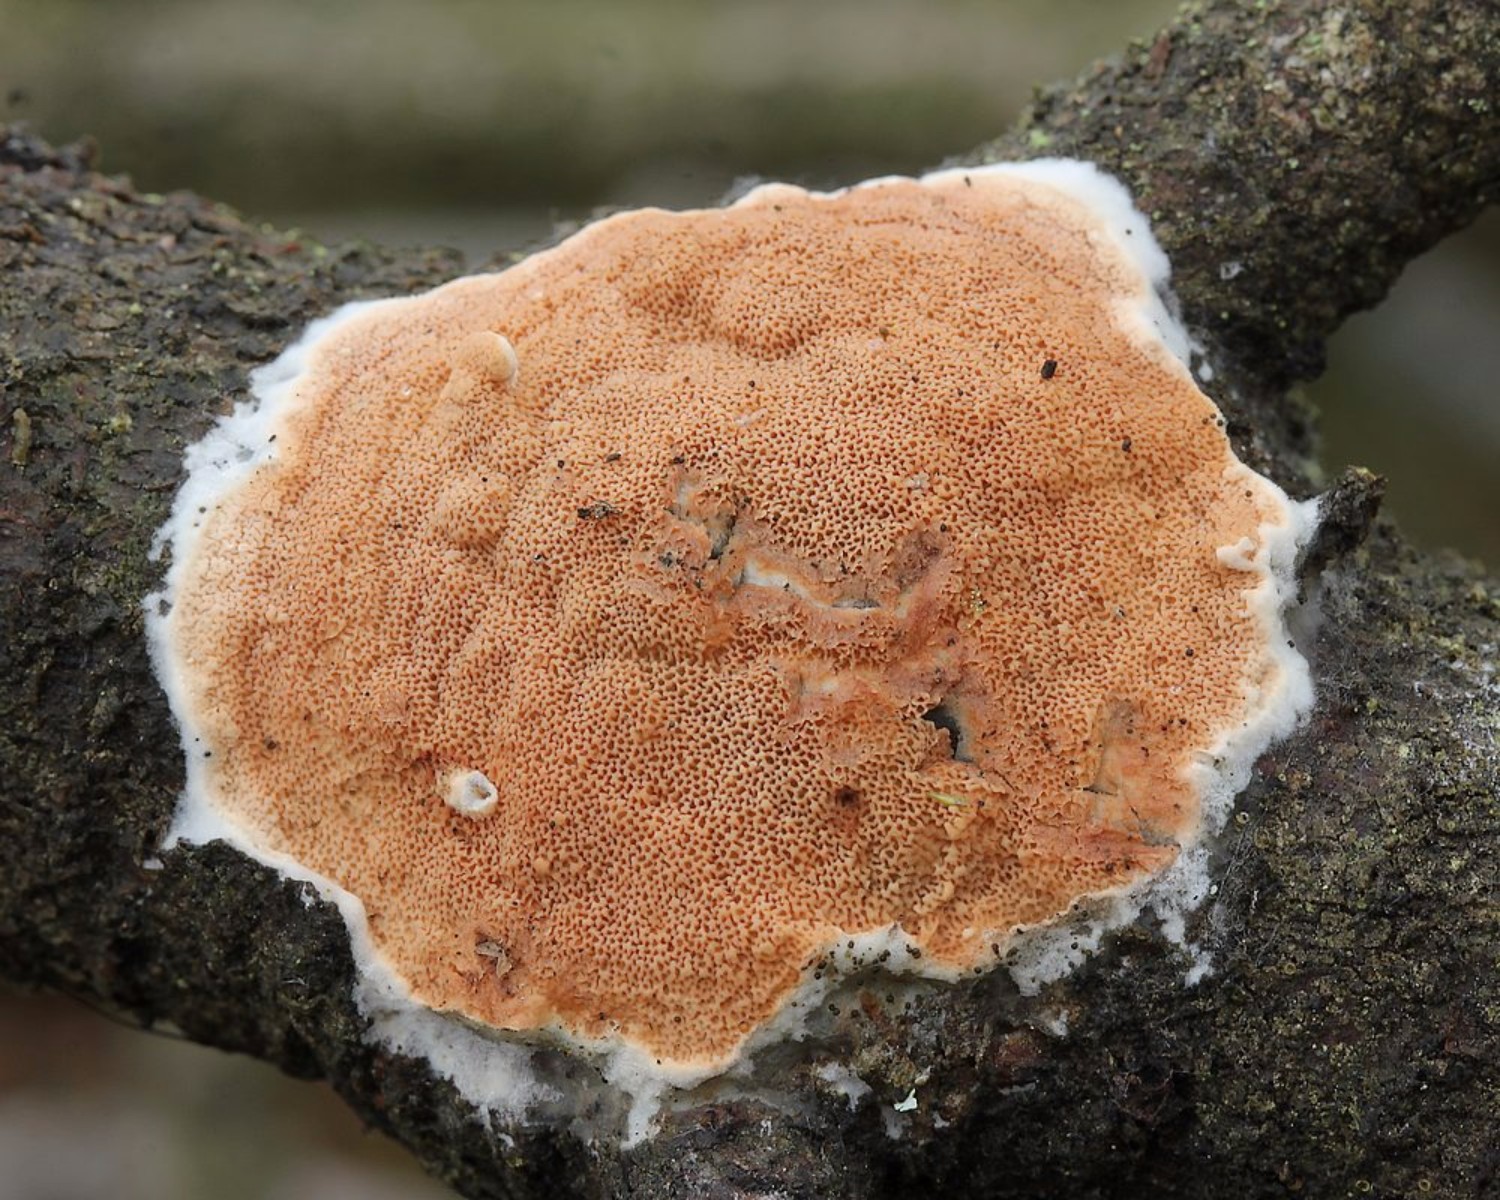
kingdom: Fungi
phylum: Basidiomycota
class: Agaricomycetes
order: Polyporales
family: Irpicaceae
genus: Meruliopsis
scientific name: Meruliopsis taxicola
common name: purpurbrun foldporesvamp
